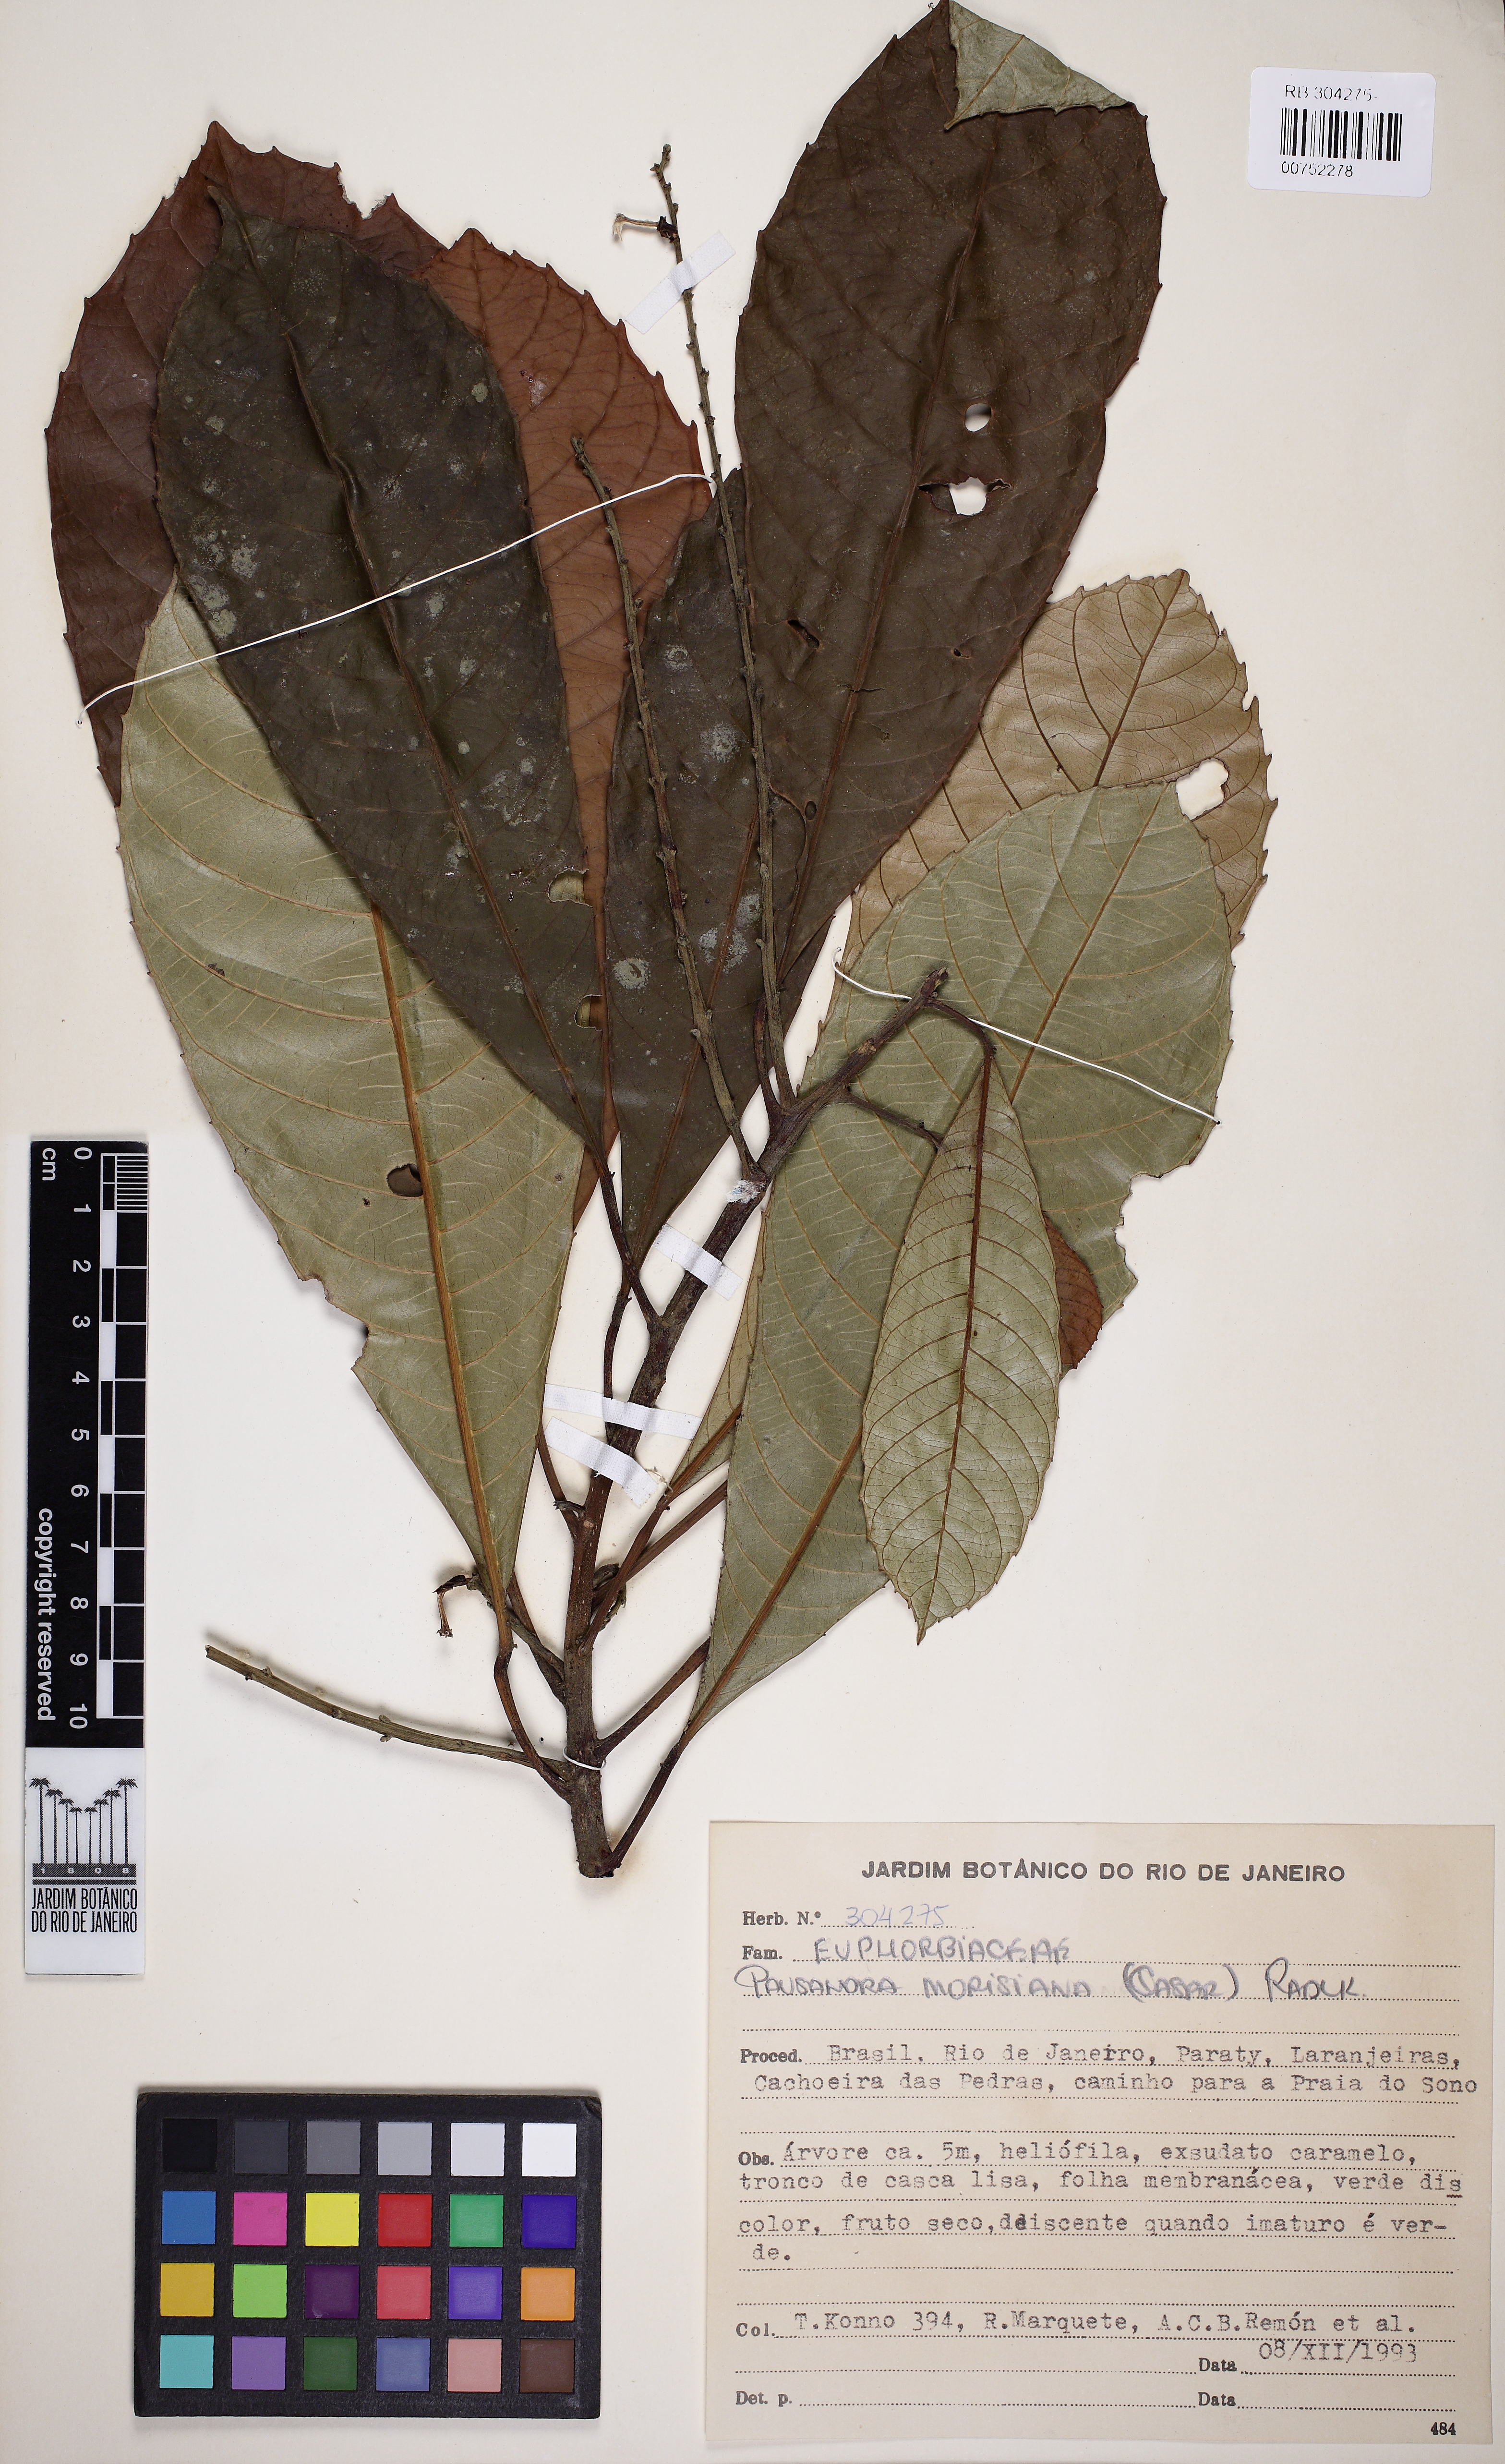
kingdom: Plantae
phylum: Tracheophyta
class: Magnoliopsida
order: Malpighiales
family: Euphorbiaceae
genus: Pausandra
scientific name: Pausandra morisiana
